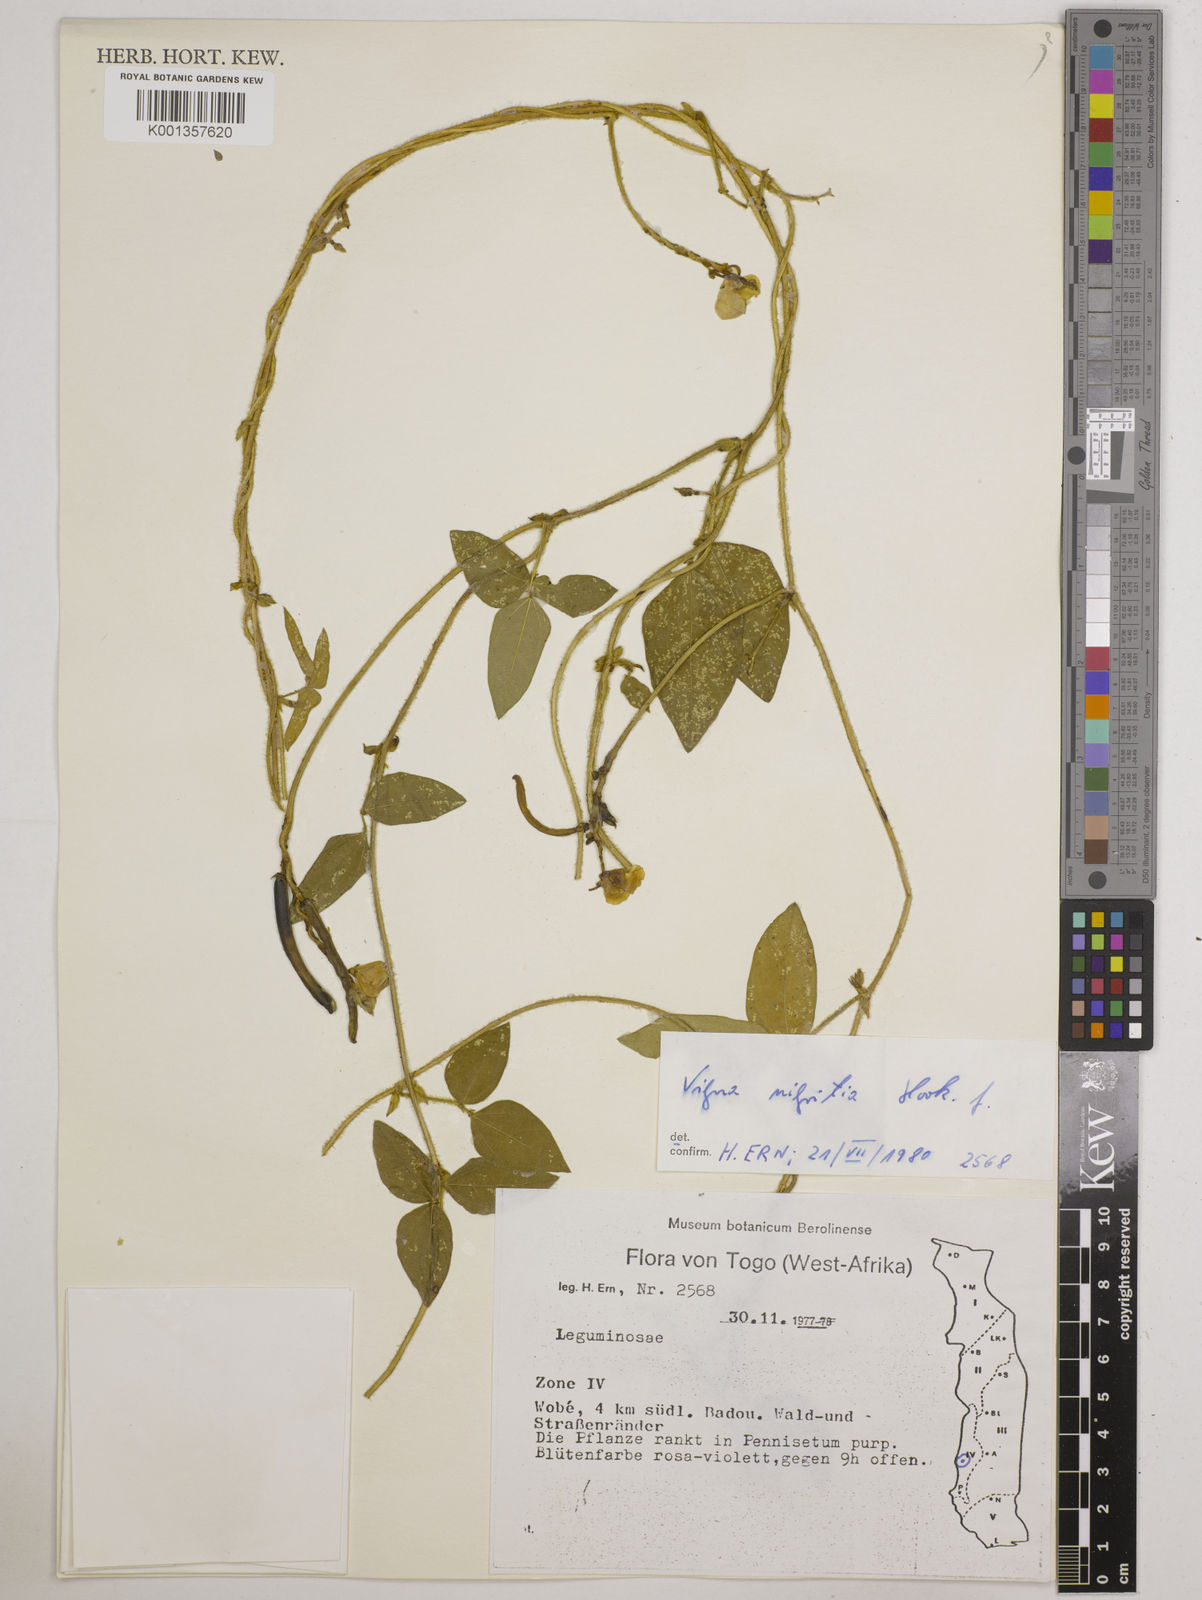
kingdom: Plantae
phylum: Tracheophyta
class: Magnoliopsida
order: Fabales
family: Fabaceae
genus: Vigna
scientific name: Vigna nigritia
